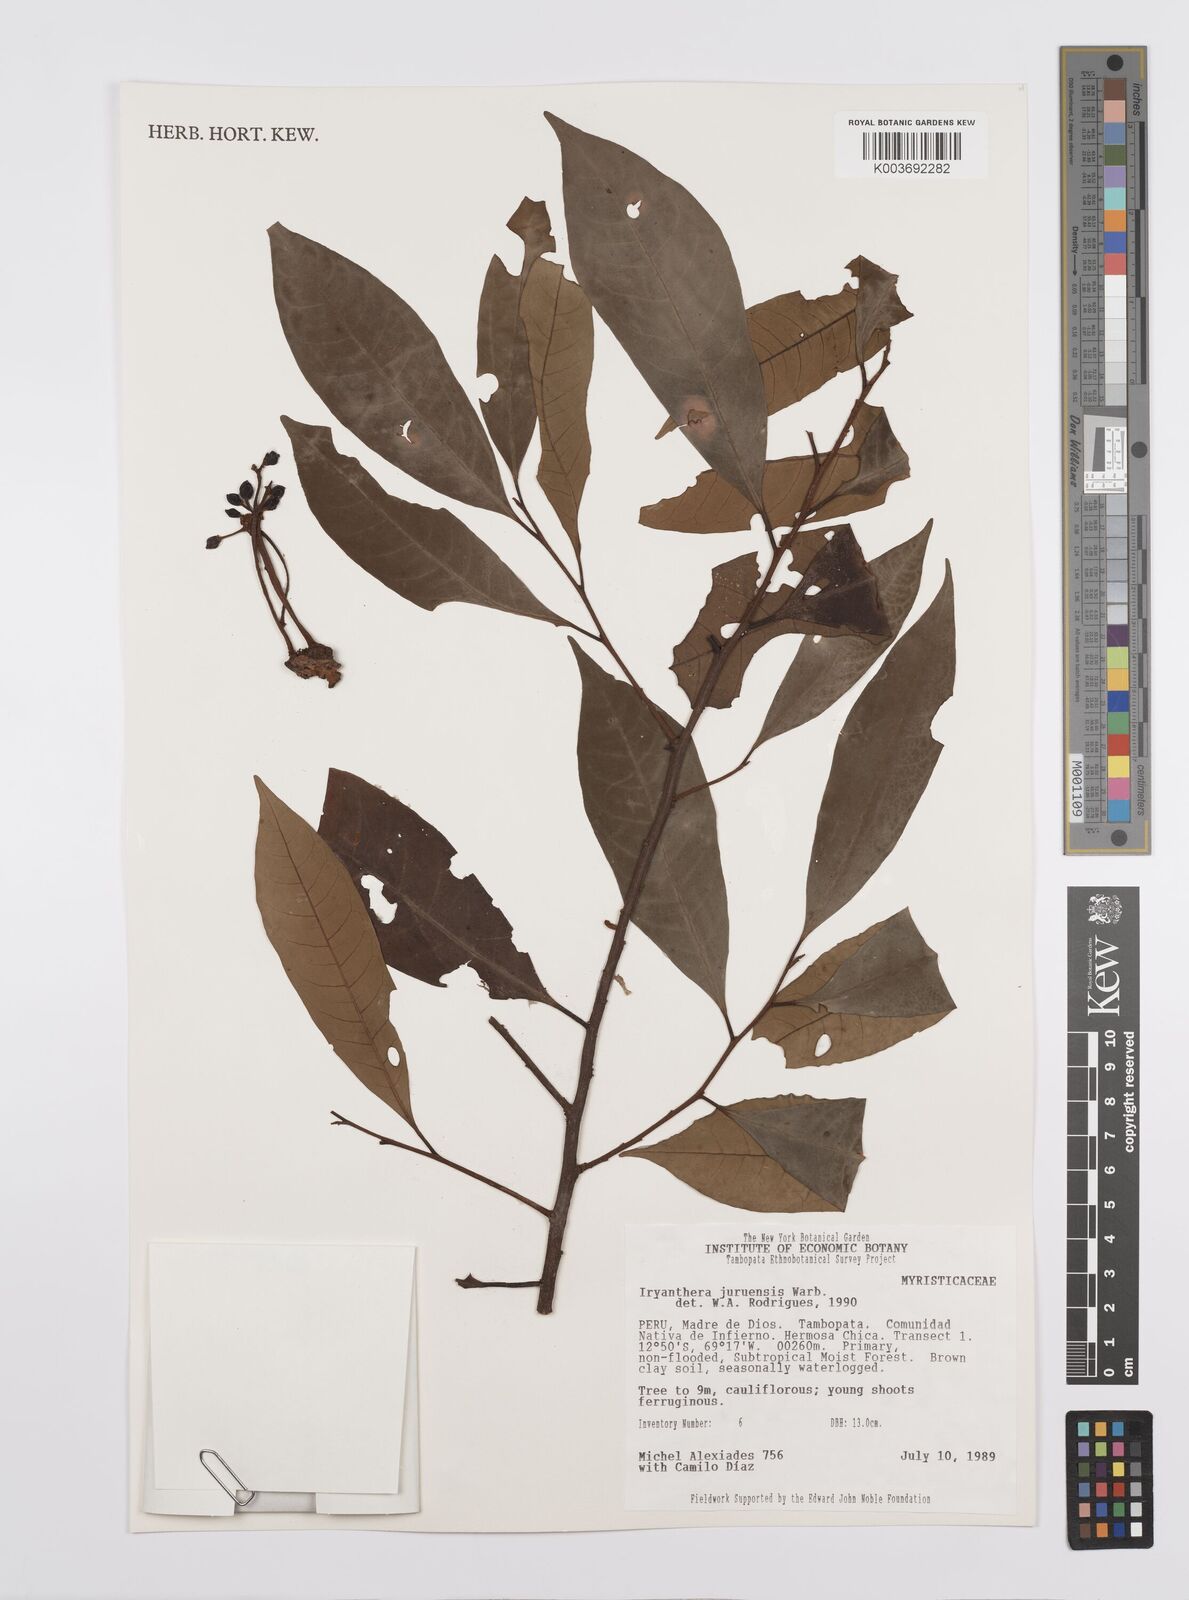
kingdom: Plantae
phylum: Tracheophyta
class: Magnoliopsida
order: Magnoliales
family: Myristicaceae
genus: Iryanthera
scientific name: Iryanthera juruensis
